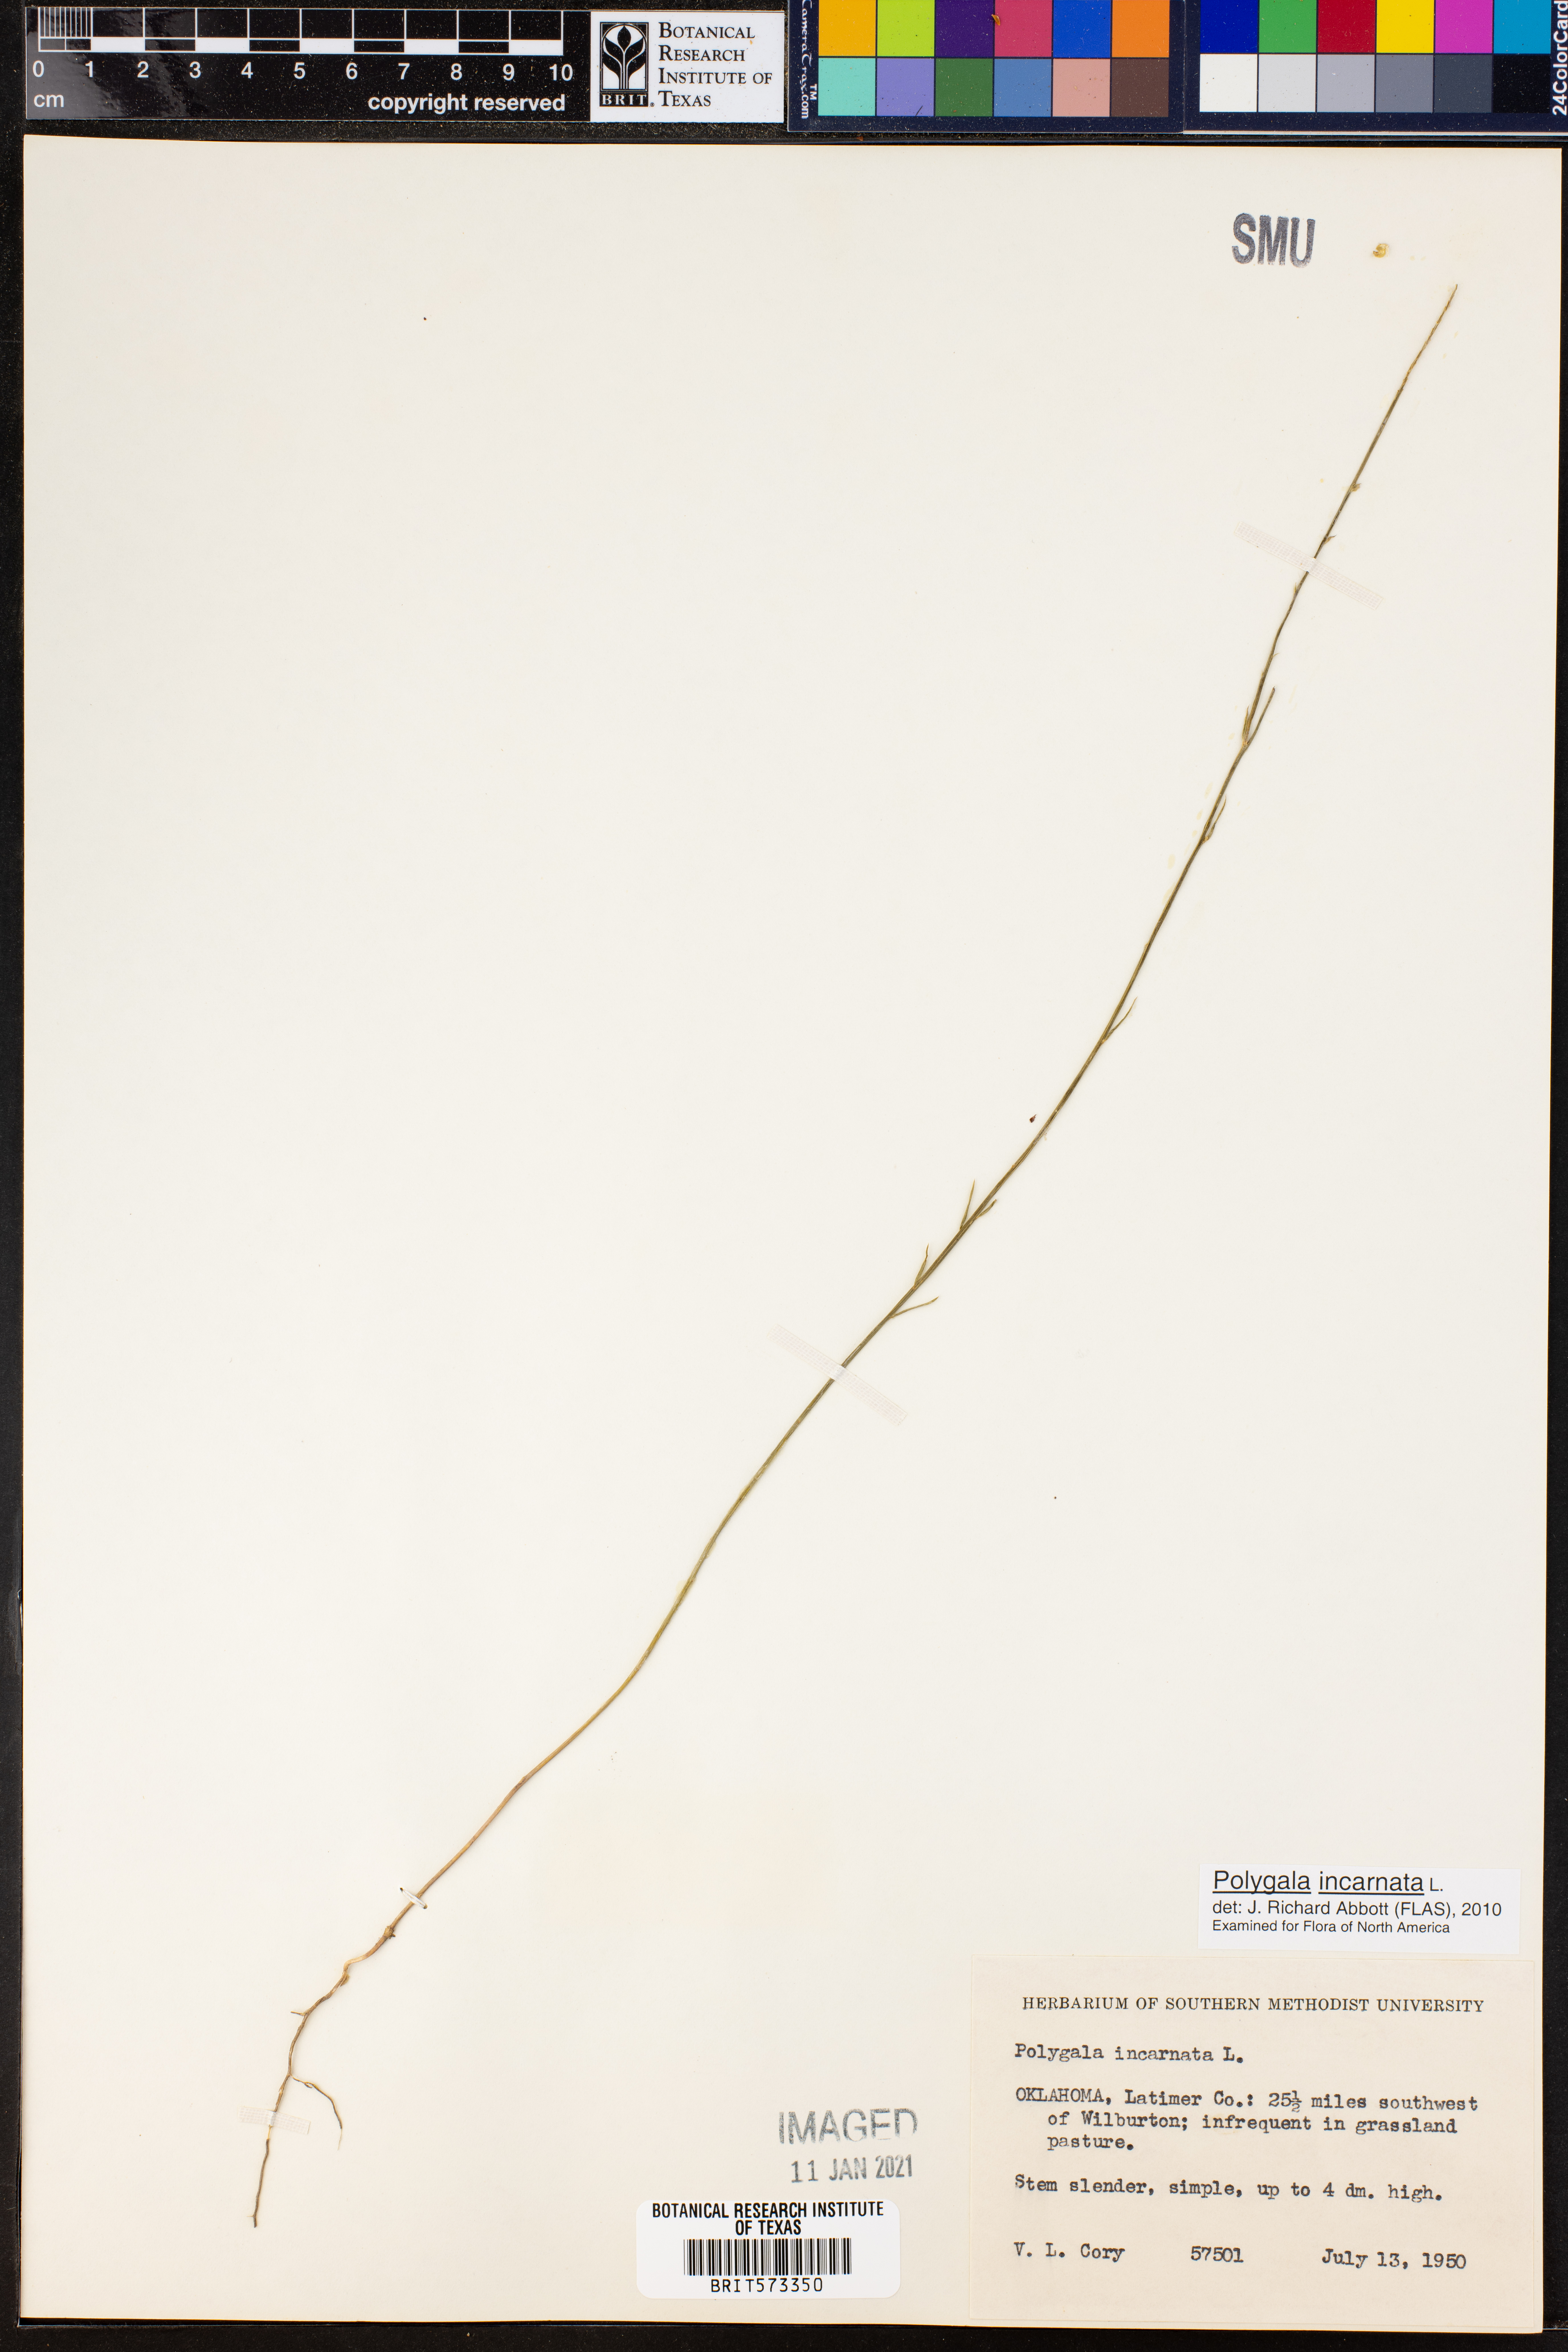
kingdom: Plantae
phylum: Tracheophyta
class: Magnoliopsida
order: Fabales
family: Polygalaceae
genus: Polygala
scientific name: Polygala incarnata
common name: Pink milkwort
